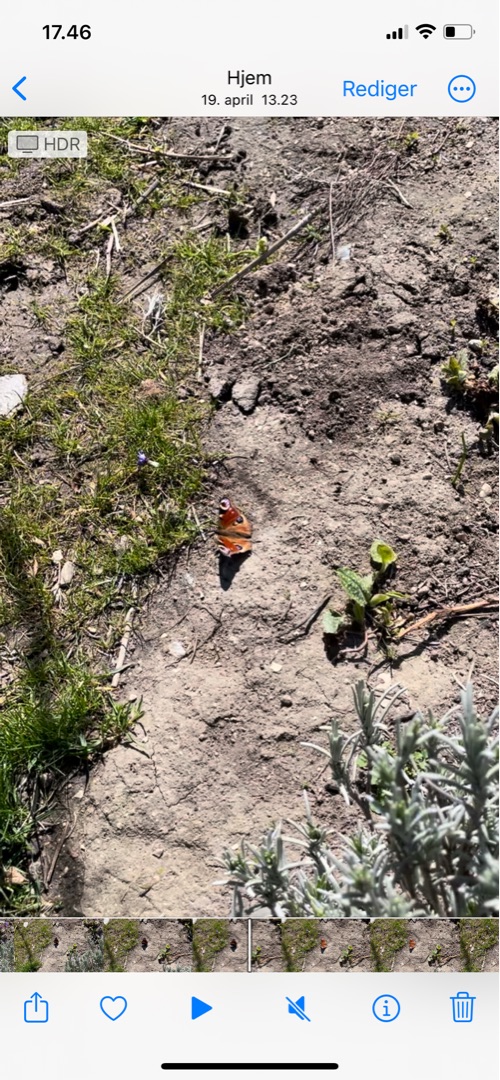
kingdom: Animalia
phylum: Arthropoda
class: Insecta
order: Lepidoptera
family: Nymphalidae
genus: Aglais
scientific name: Aglais io
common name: Dagpåfugleøje
